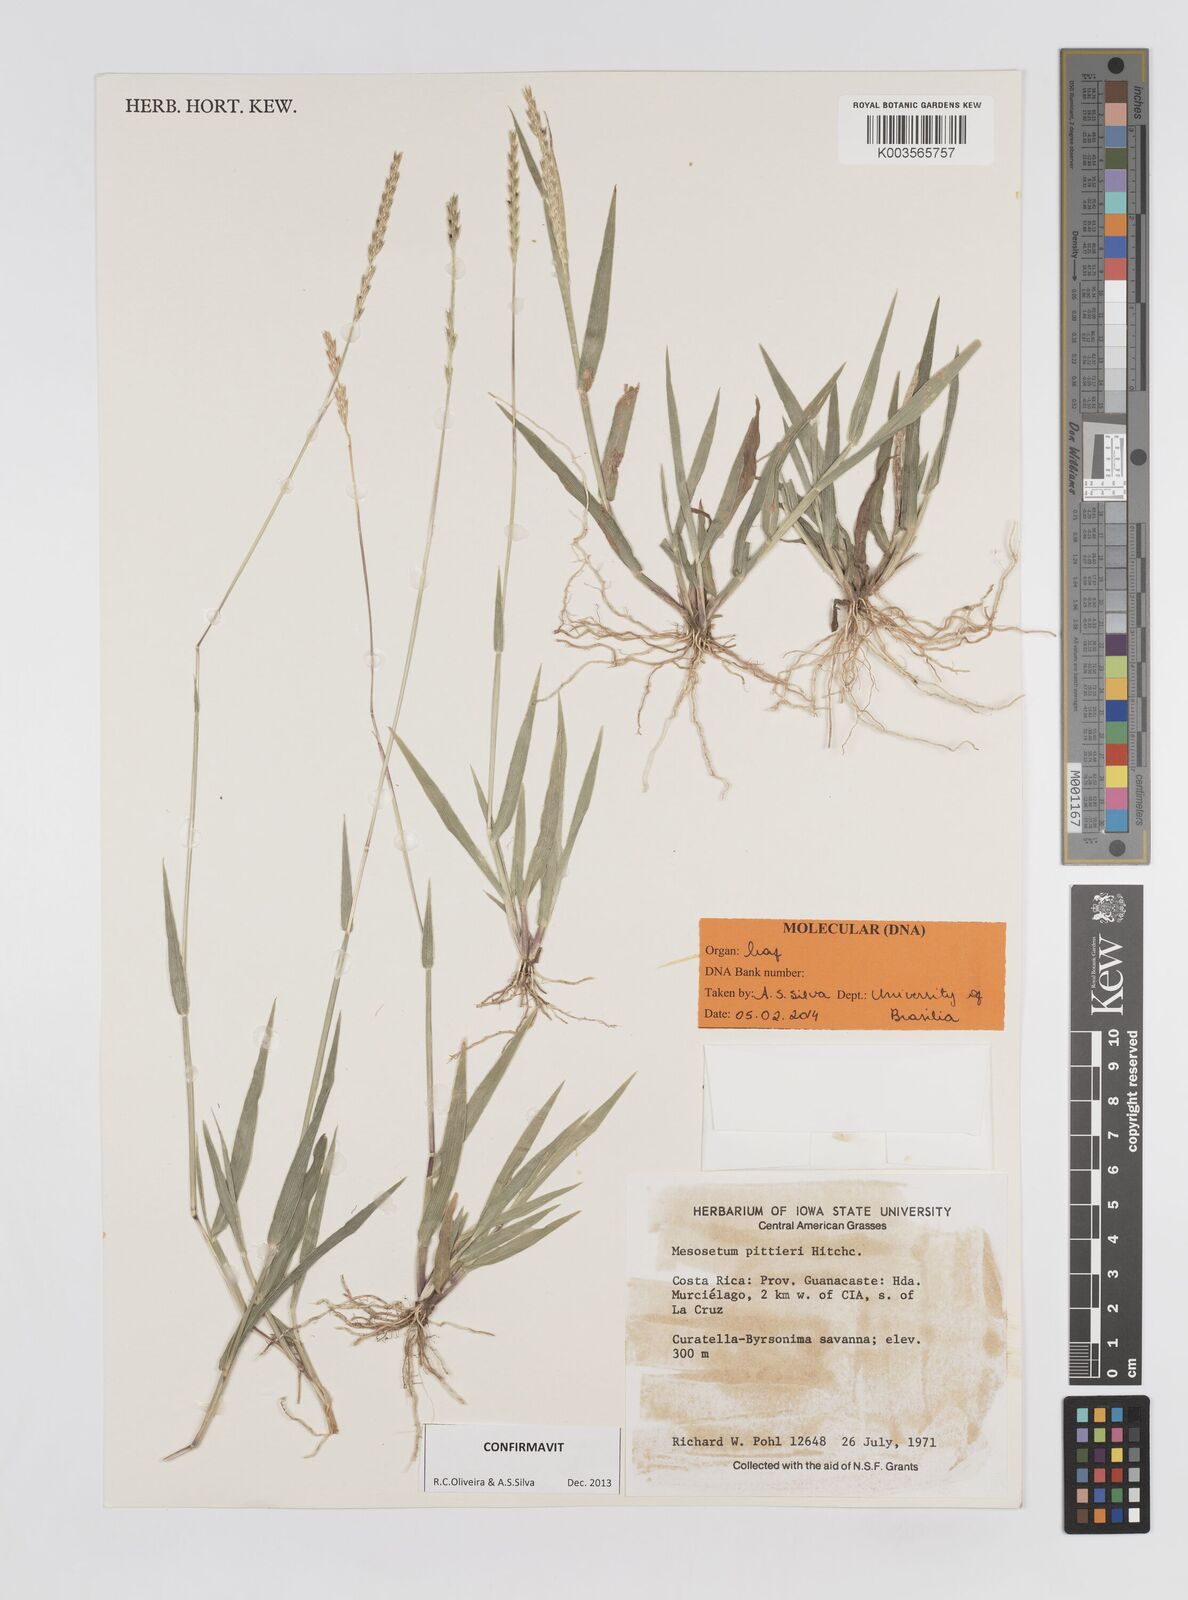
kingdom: Plantae
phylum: Tracheophyta
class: Liliopsida
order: Poales
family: Poaceae
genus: Mesosetum
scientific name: Mesosetum pittieri
